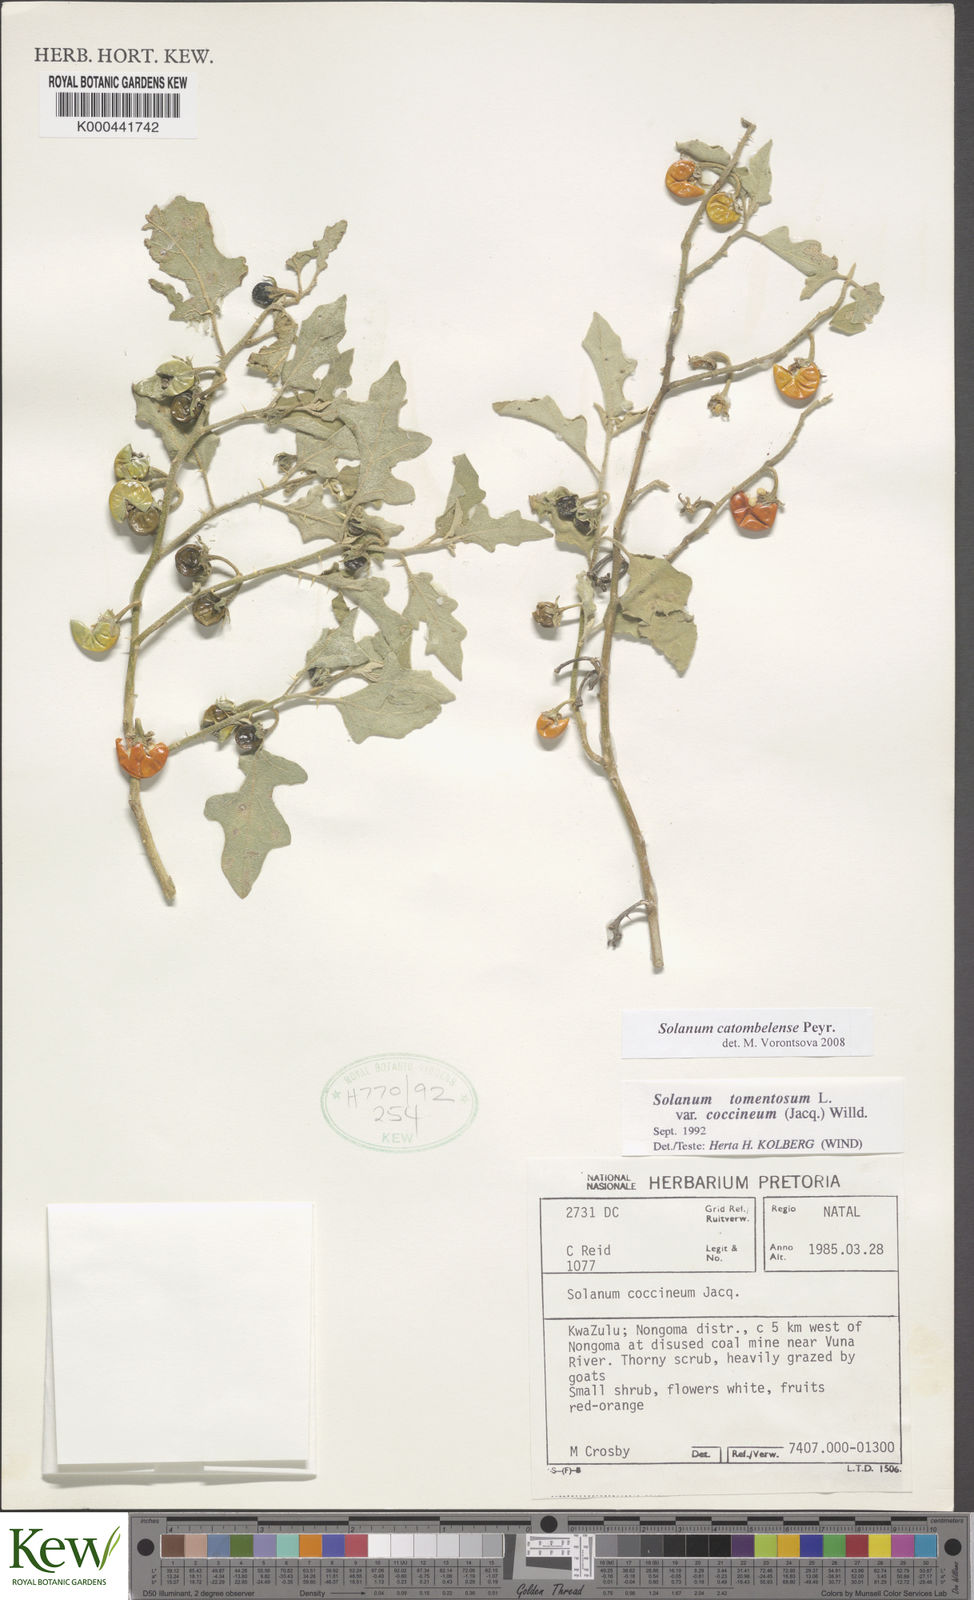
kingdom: Plantae
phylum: Tracheophyta
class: Magnoliopsida
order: Solanales
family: Solanaceae
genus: Solanum
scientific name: Solanum catombelense
